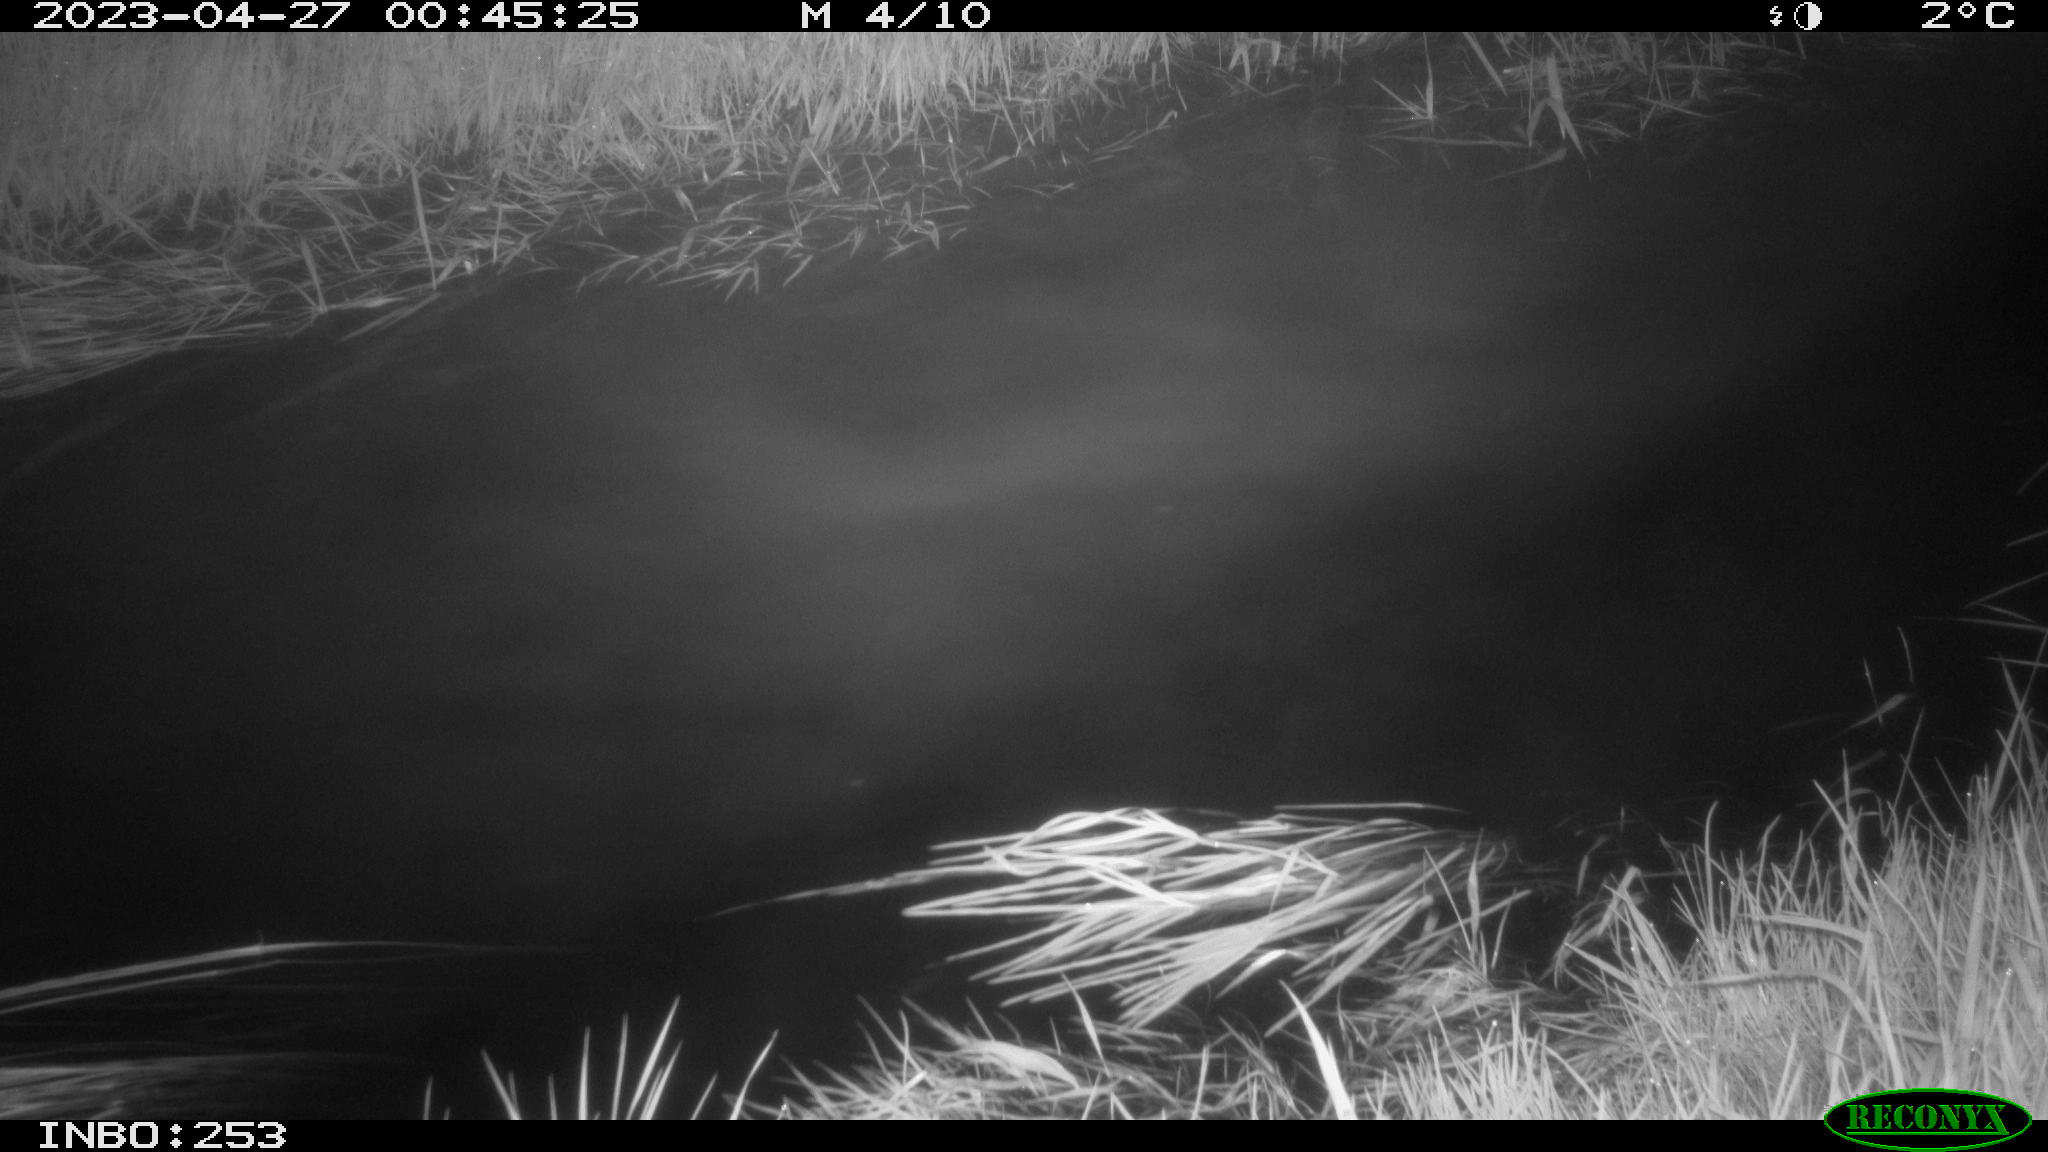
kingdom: Animalia
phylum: Chordata
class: Aves
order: Anseriformes
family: Anatidae
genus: Anas
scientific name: Anas
